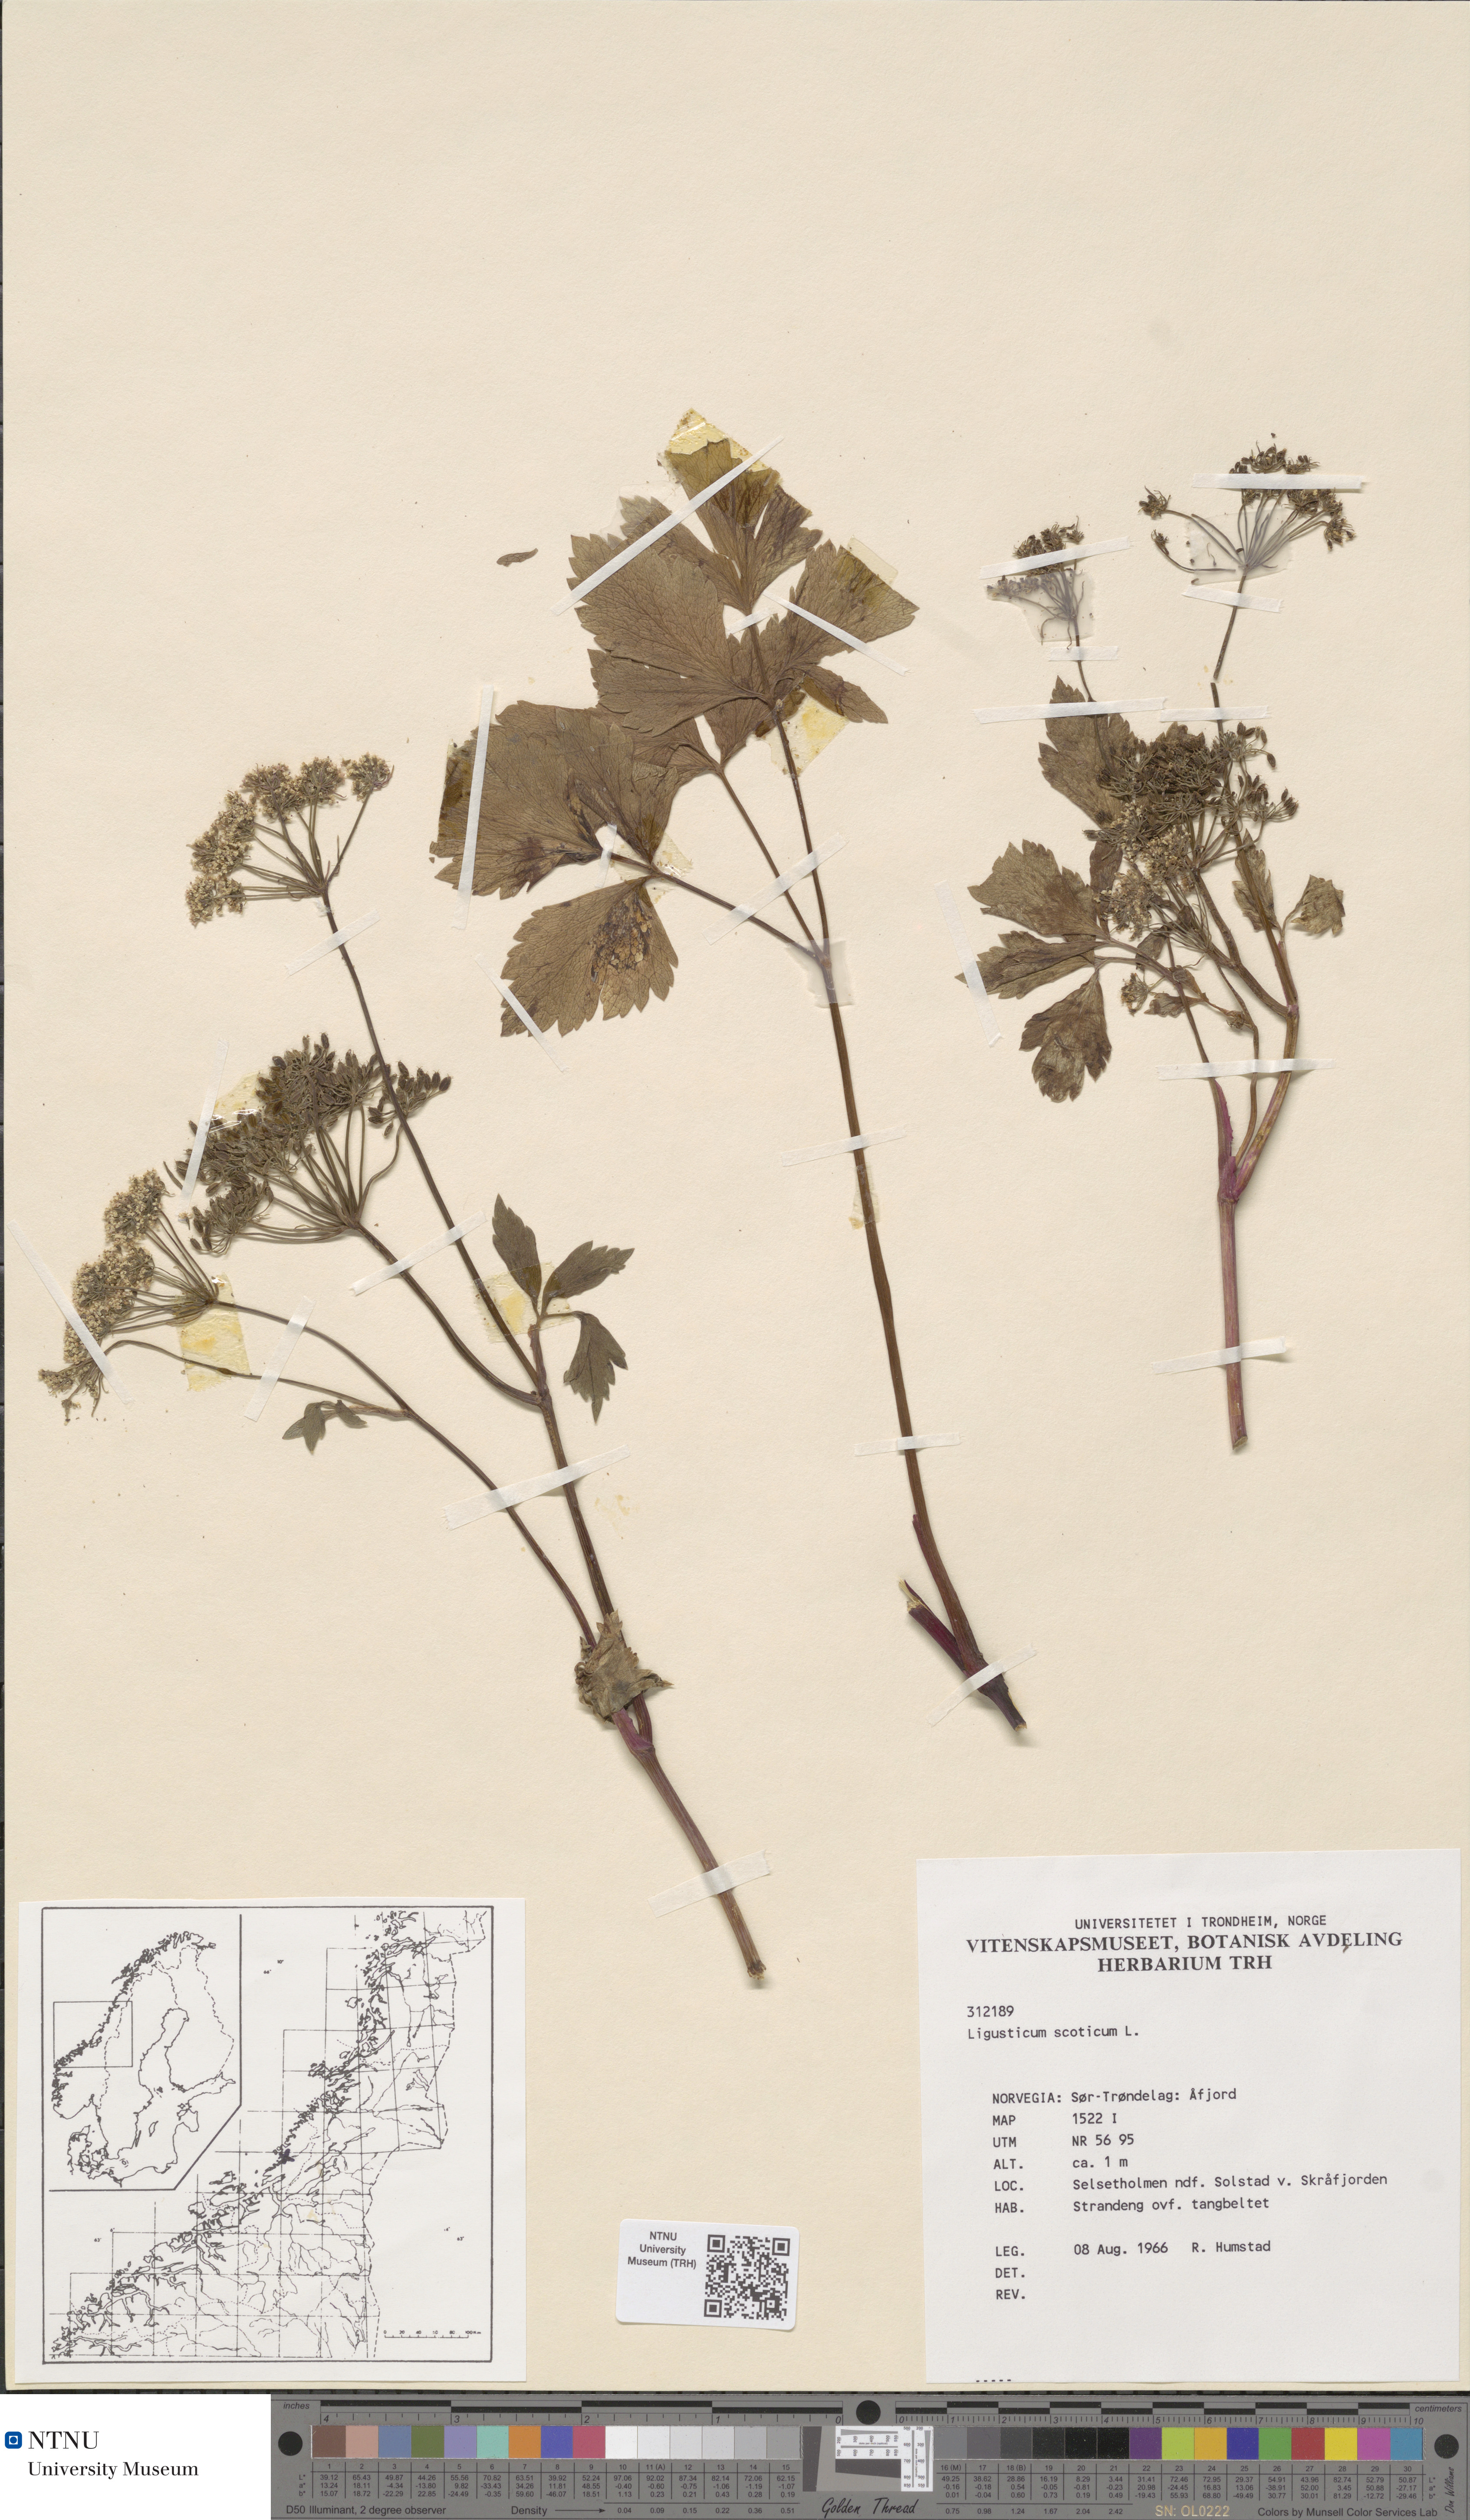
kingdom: Plantae
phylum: Tracheophyta
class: Magnoliopsida
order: Apiales
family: Apiaceae
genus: Ligusticum
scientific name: Ligusticum scothicum
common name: Beach lovage
